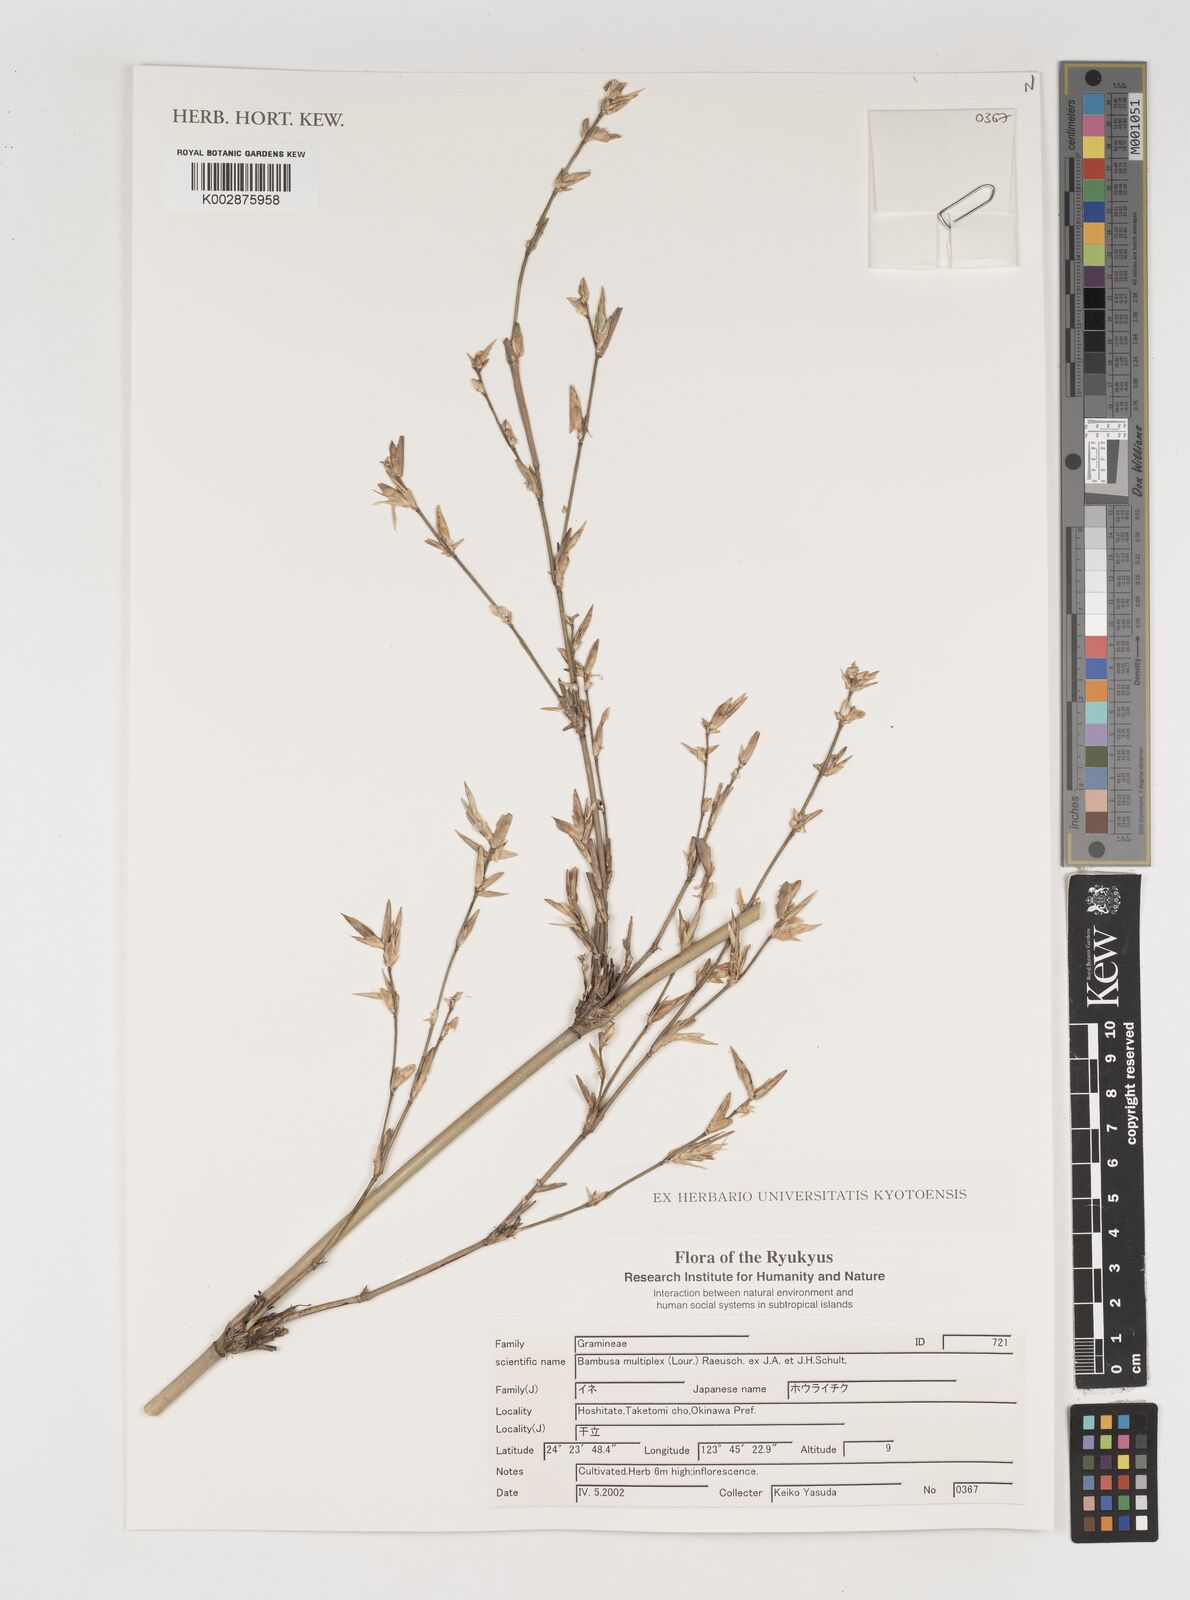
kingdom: Plantae
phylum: Tracheophyta
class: Liliopsida
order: Poales
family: Poaceae
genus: Bambusa
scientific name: Bambusa multiplex
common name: Hedge bamboo
